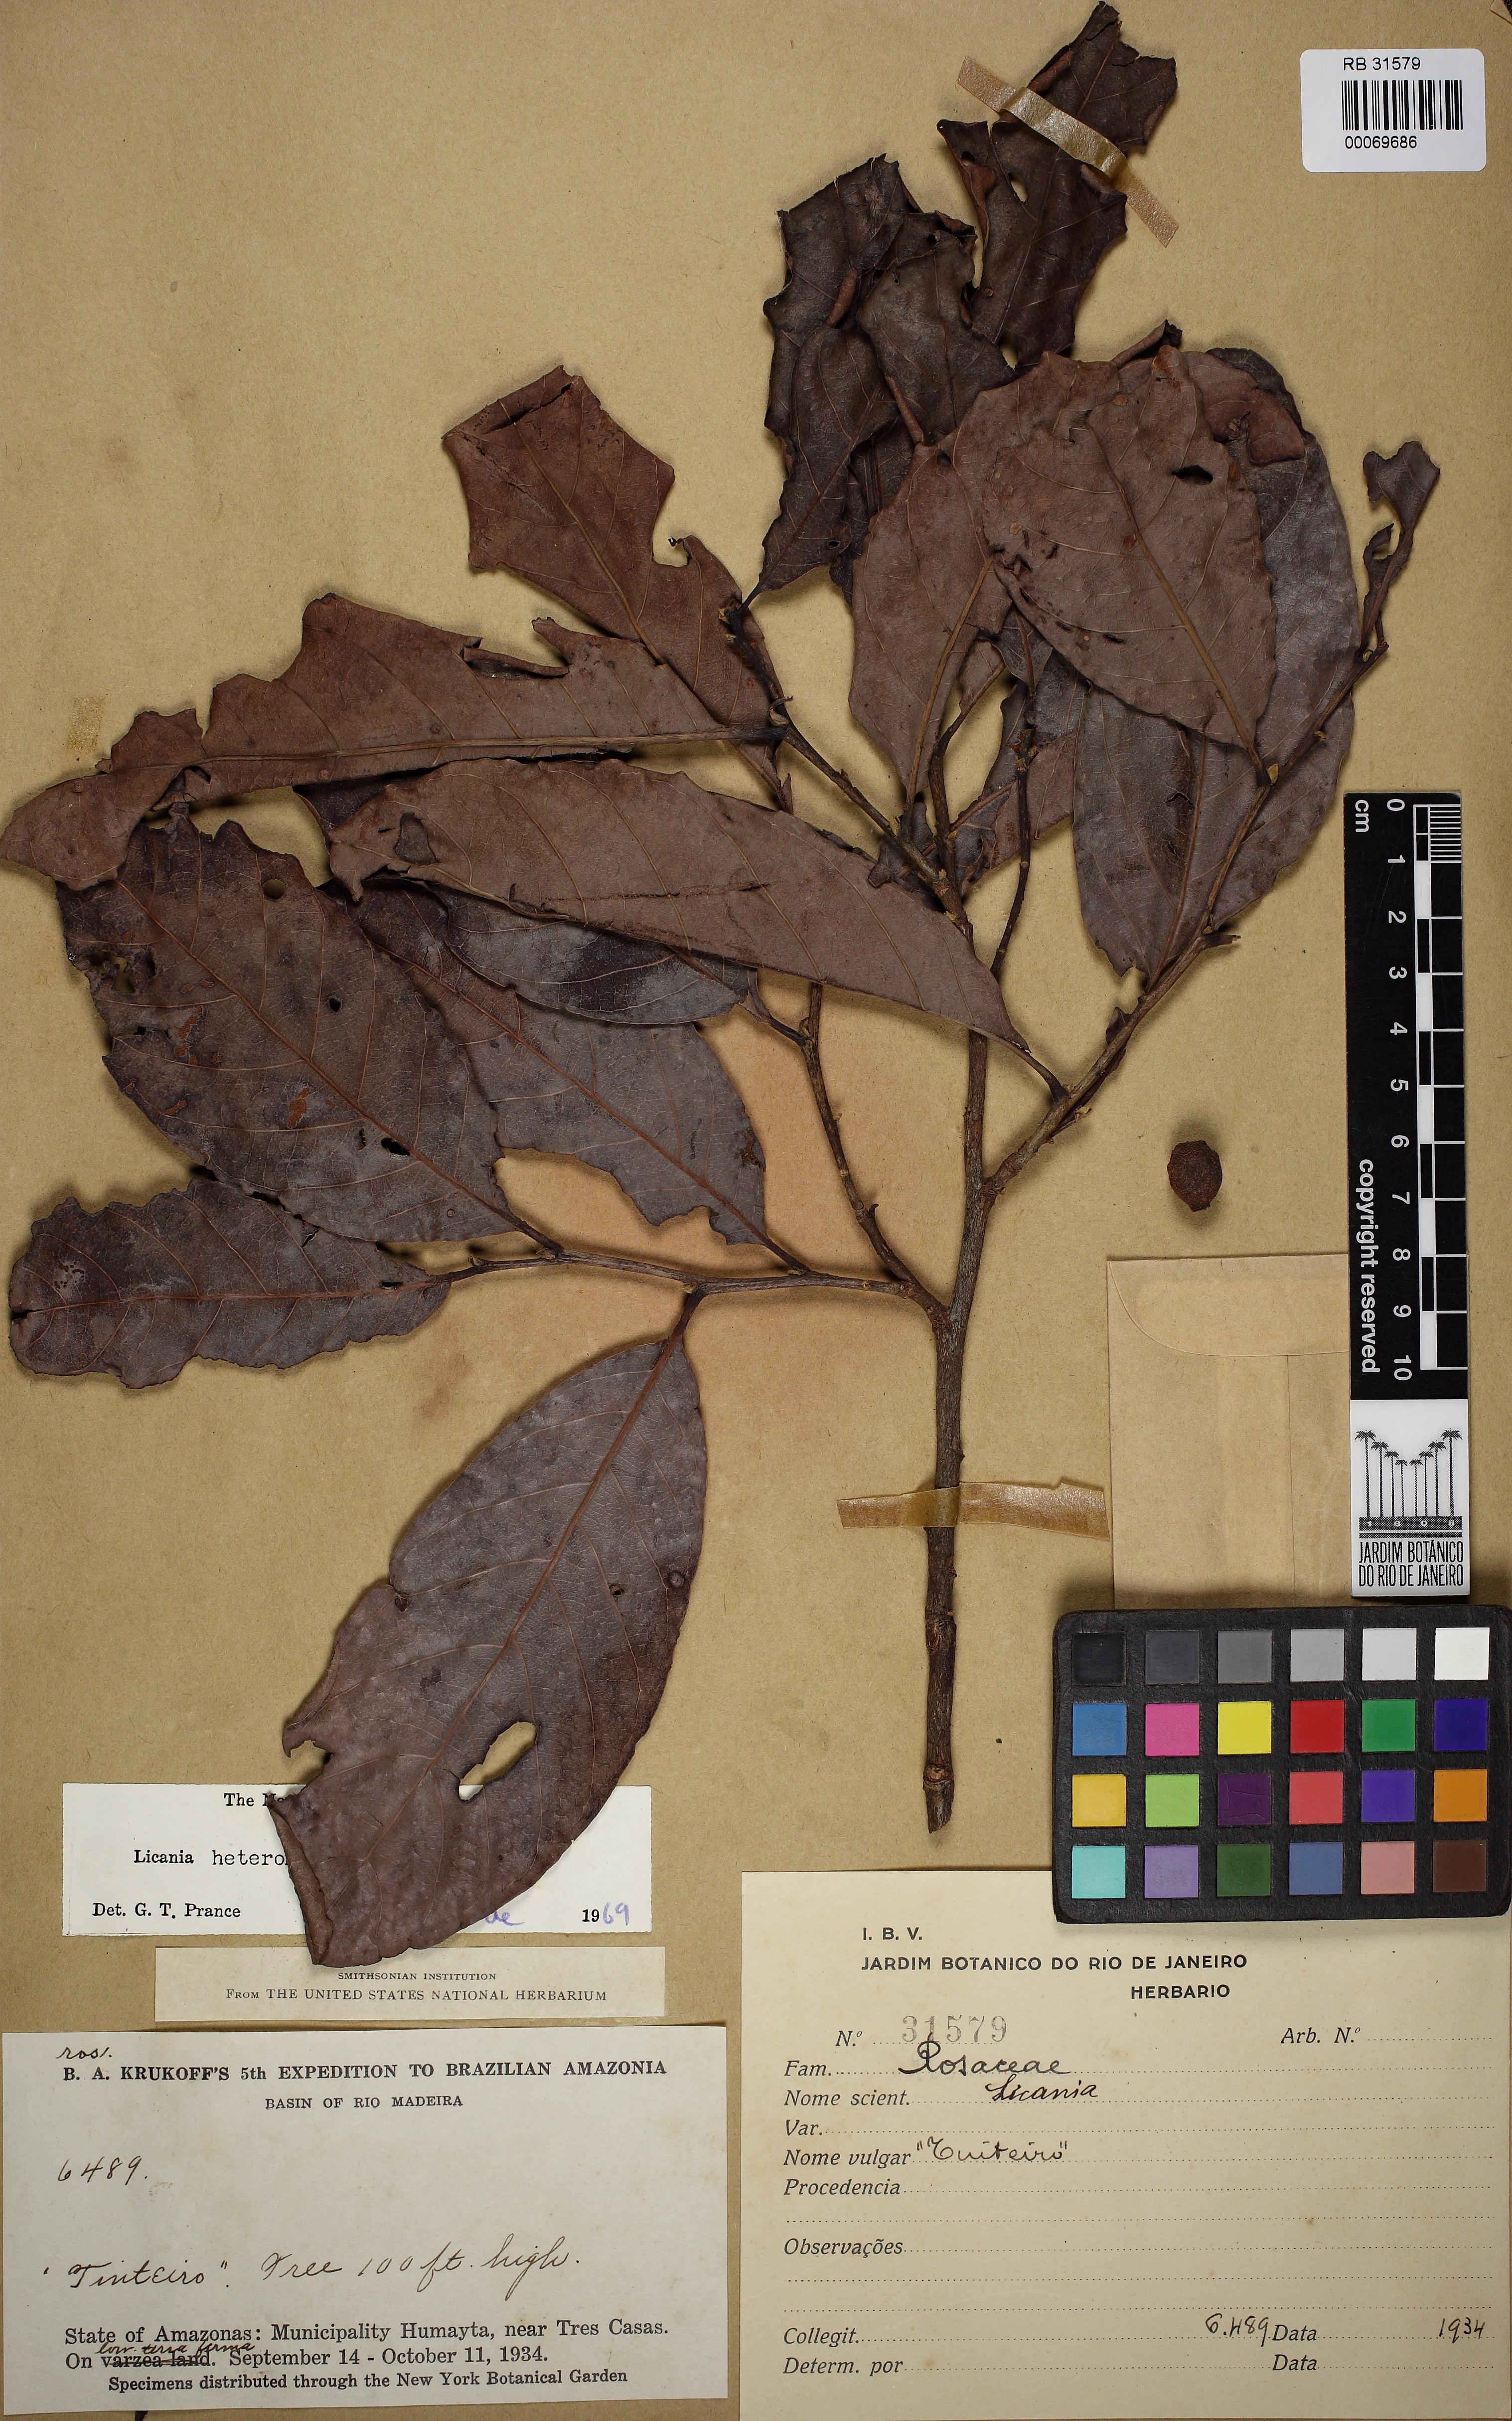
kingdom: Plantae
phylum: Tracheophyta
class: Magnoliopsida
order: Malpighiales
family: Chrysobalanaceae
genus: Hymenopus
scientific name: Hymenopus heteromorphus
